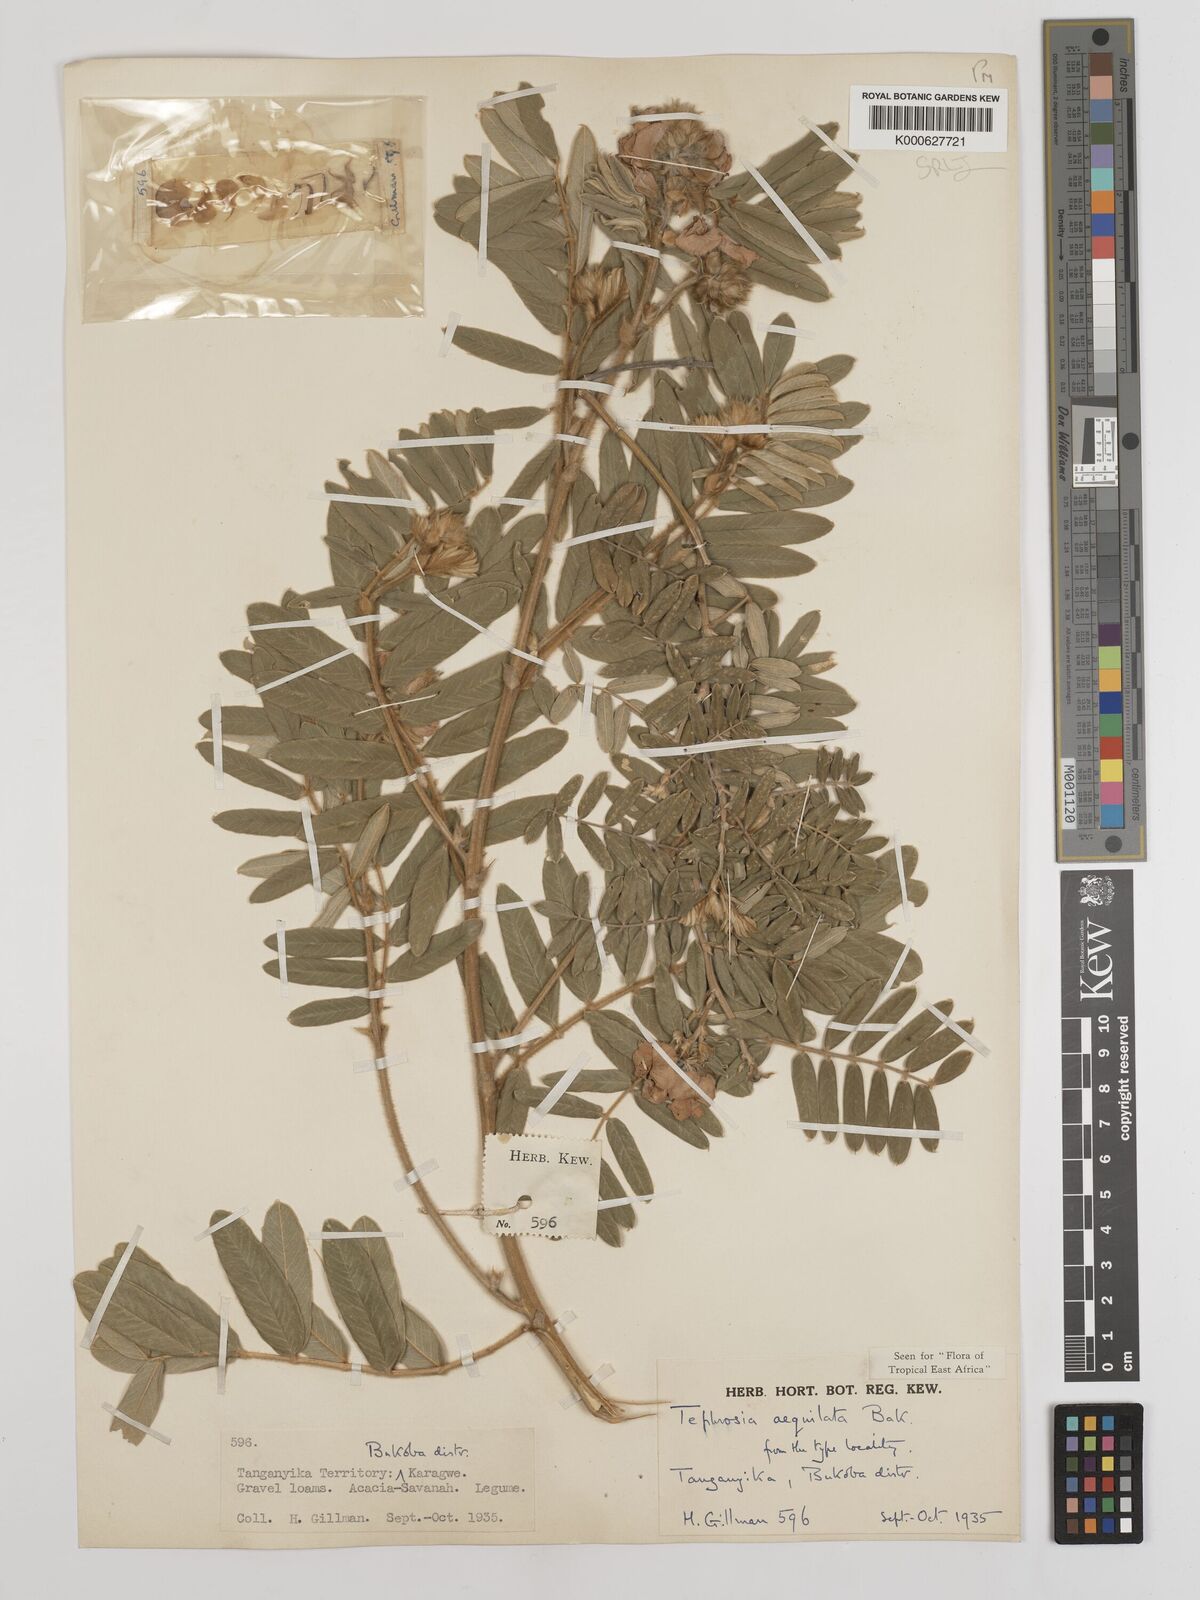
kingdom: Plantae
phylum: Tracheophyta
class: Magnoliopsida
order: Fabales
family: Fabaceae
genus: Tephrosia
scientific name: Tephrosia aequilata
